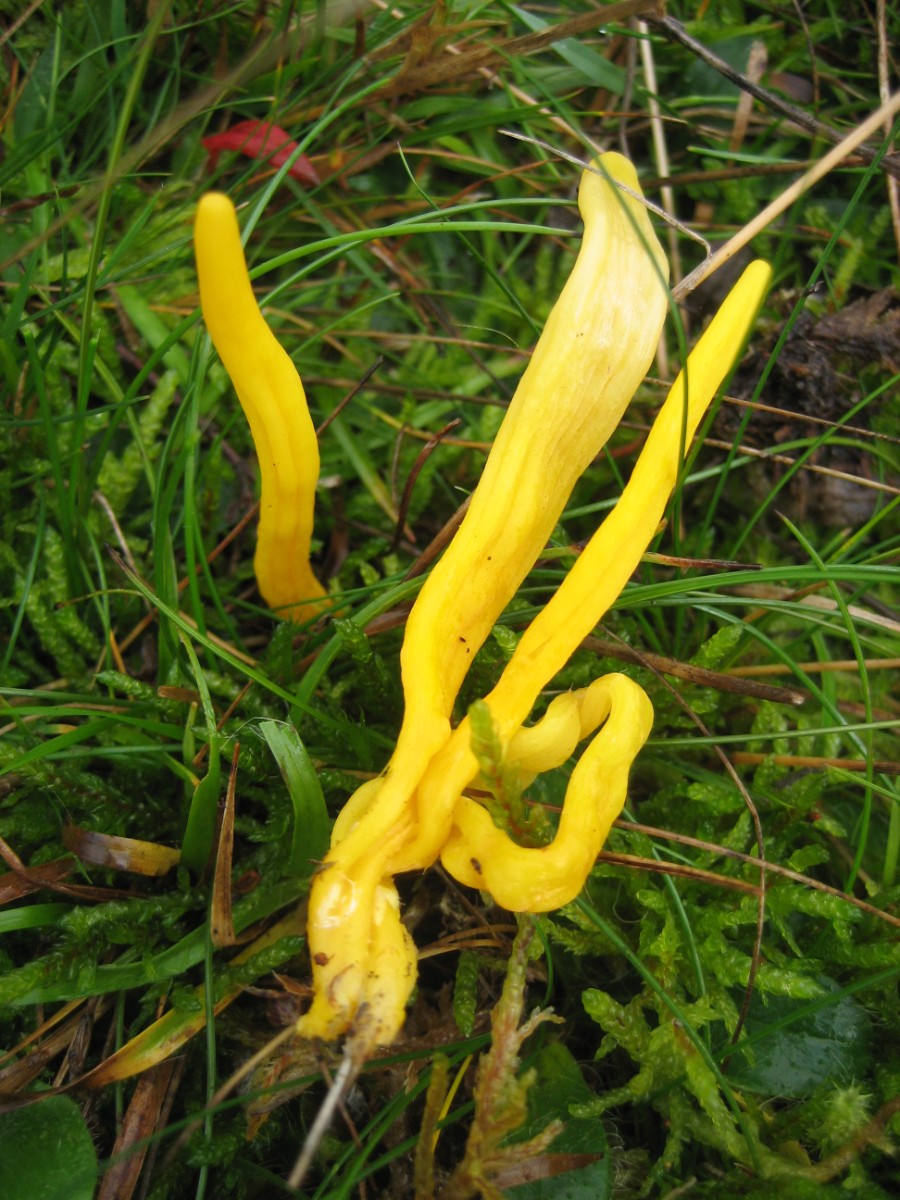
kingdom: Fungi
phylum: Basidiomycota
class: Agaricomycetes
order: Agaricales
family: Clavariaceae
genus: Clavulinopsis
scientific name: Clavulinopsis
